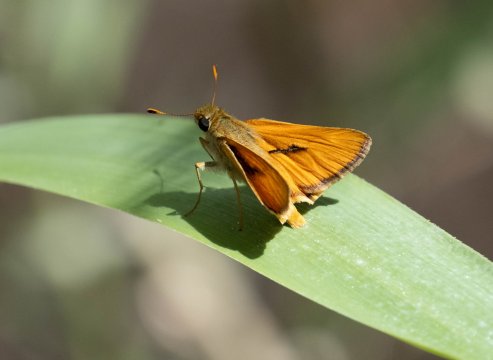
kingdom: Animalia
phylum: Arthropoda
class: Insecta
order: Lepidoptera
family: Hesperiidae
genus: Ochlodes
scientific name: Ochlodes sylvanoides
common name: Yuma Skipper
